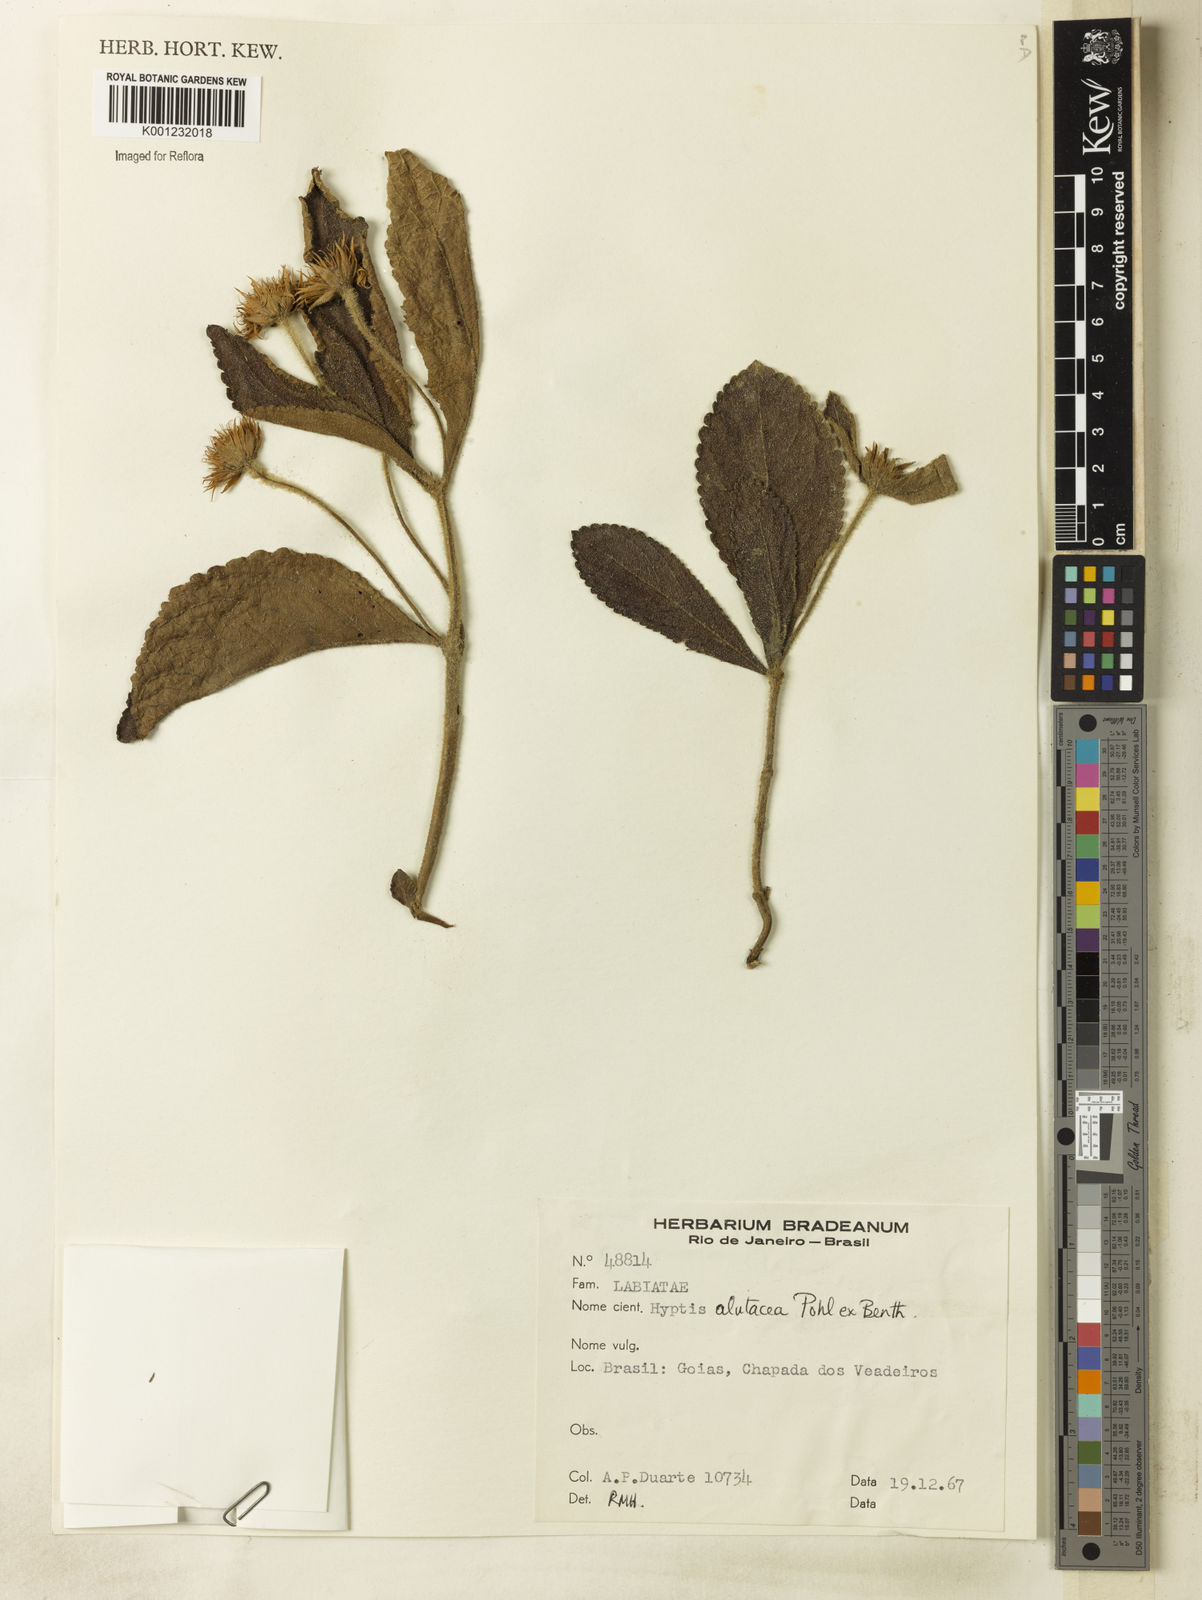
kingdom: Plantae
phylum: Tracheophyta
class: Magnoliopsida
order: Lamiales
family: Lamiaceae
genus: Hyptis
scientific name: Hyptis alutacea
